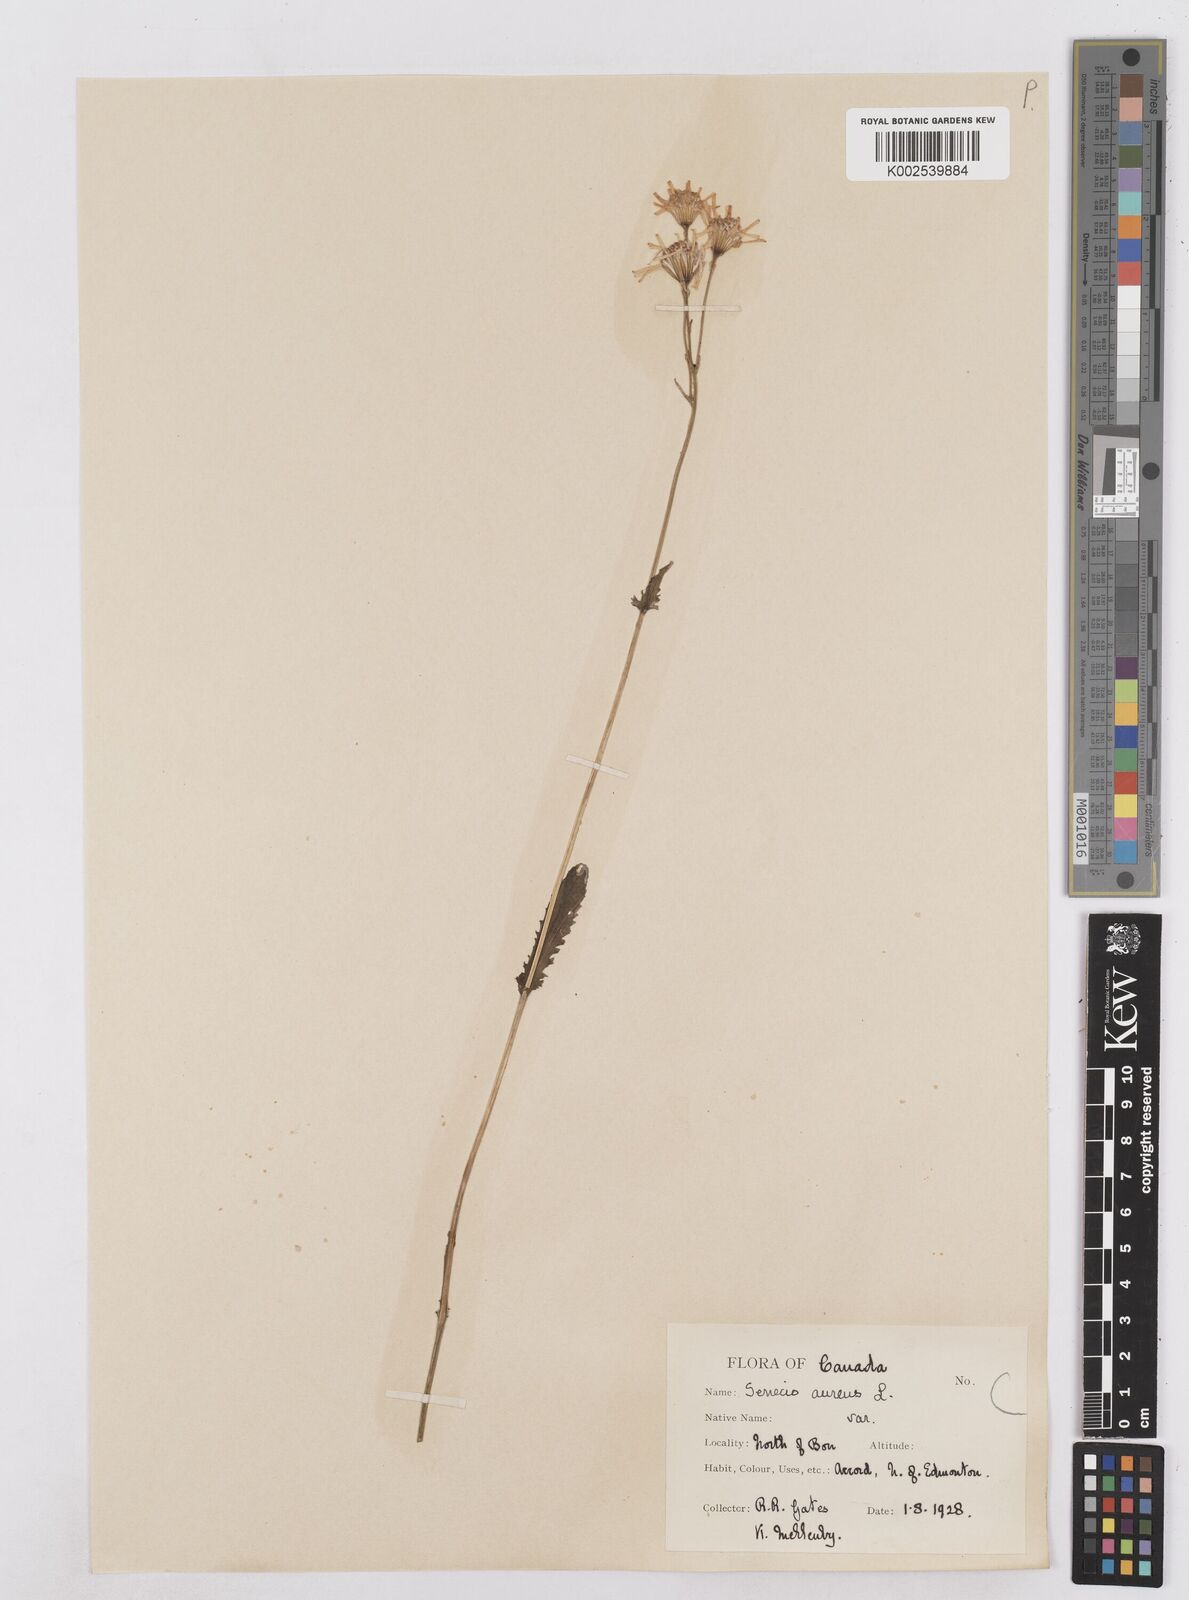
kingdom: Plantae
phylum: Tracheophyta
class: Magnoliopsida
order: Asterales
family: Asteraceae
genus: Packera
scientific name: Packera aurea
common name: Golden groundsel
